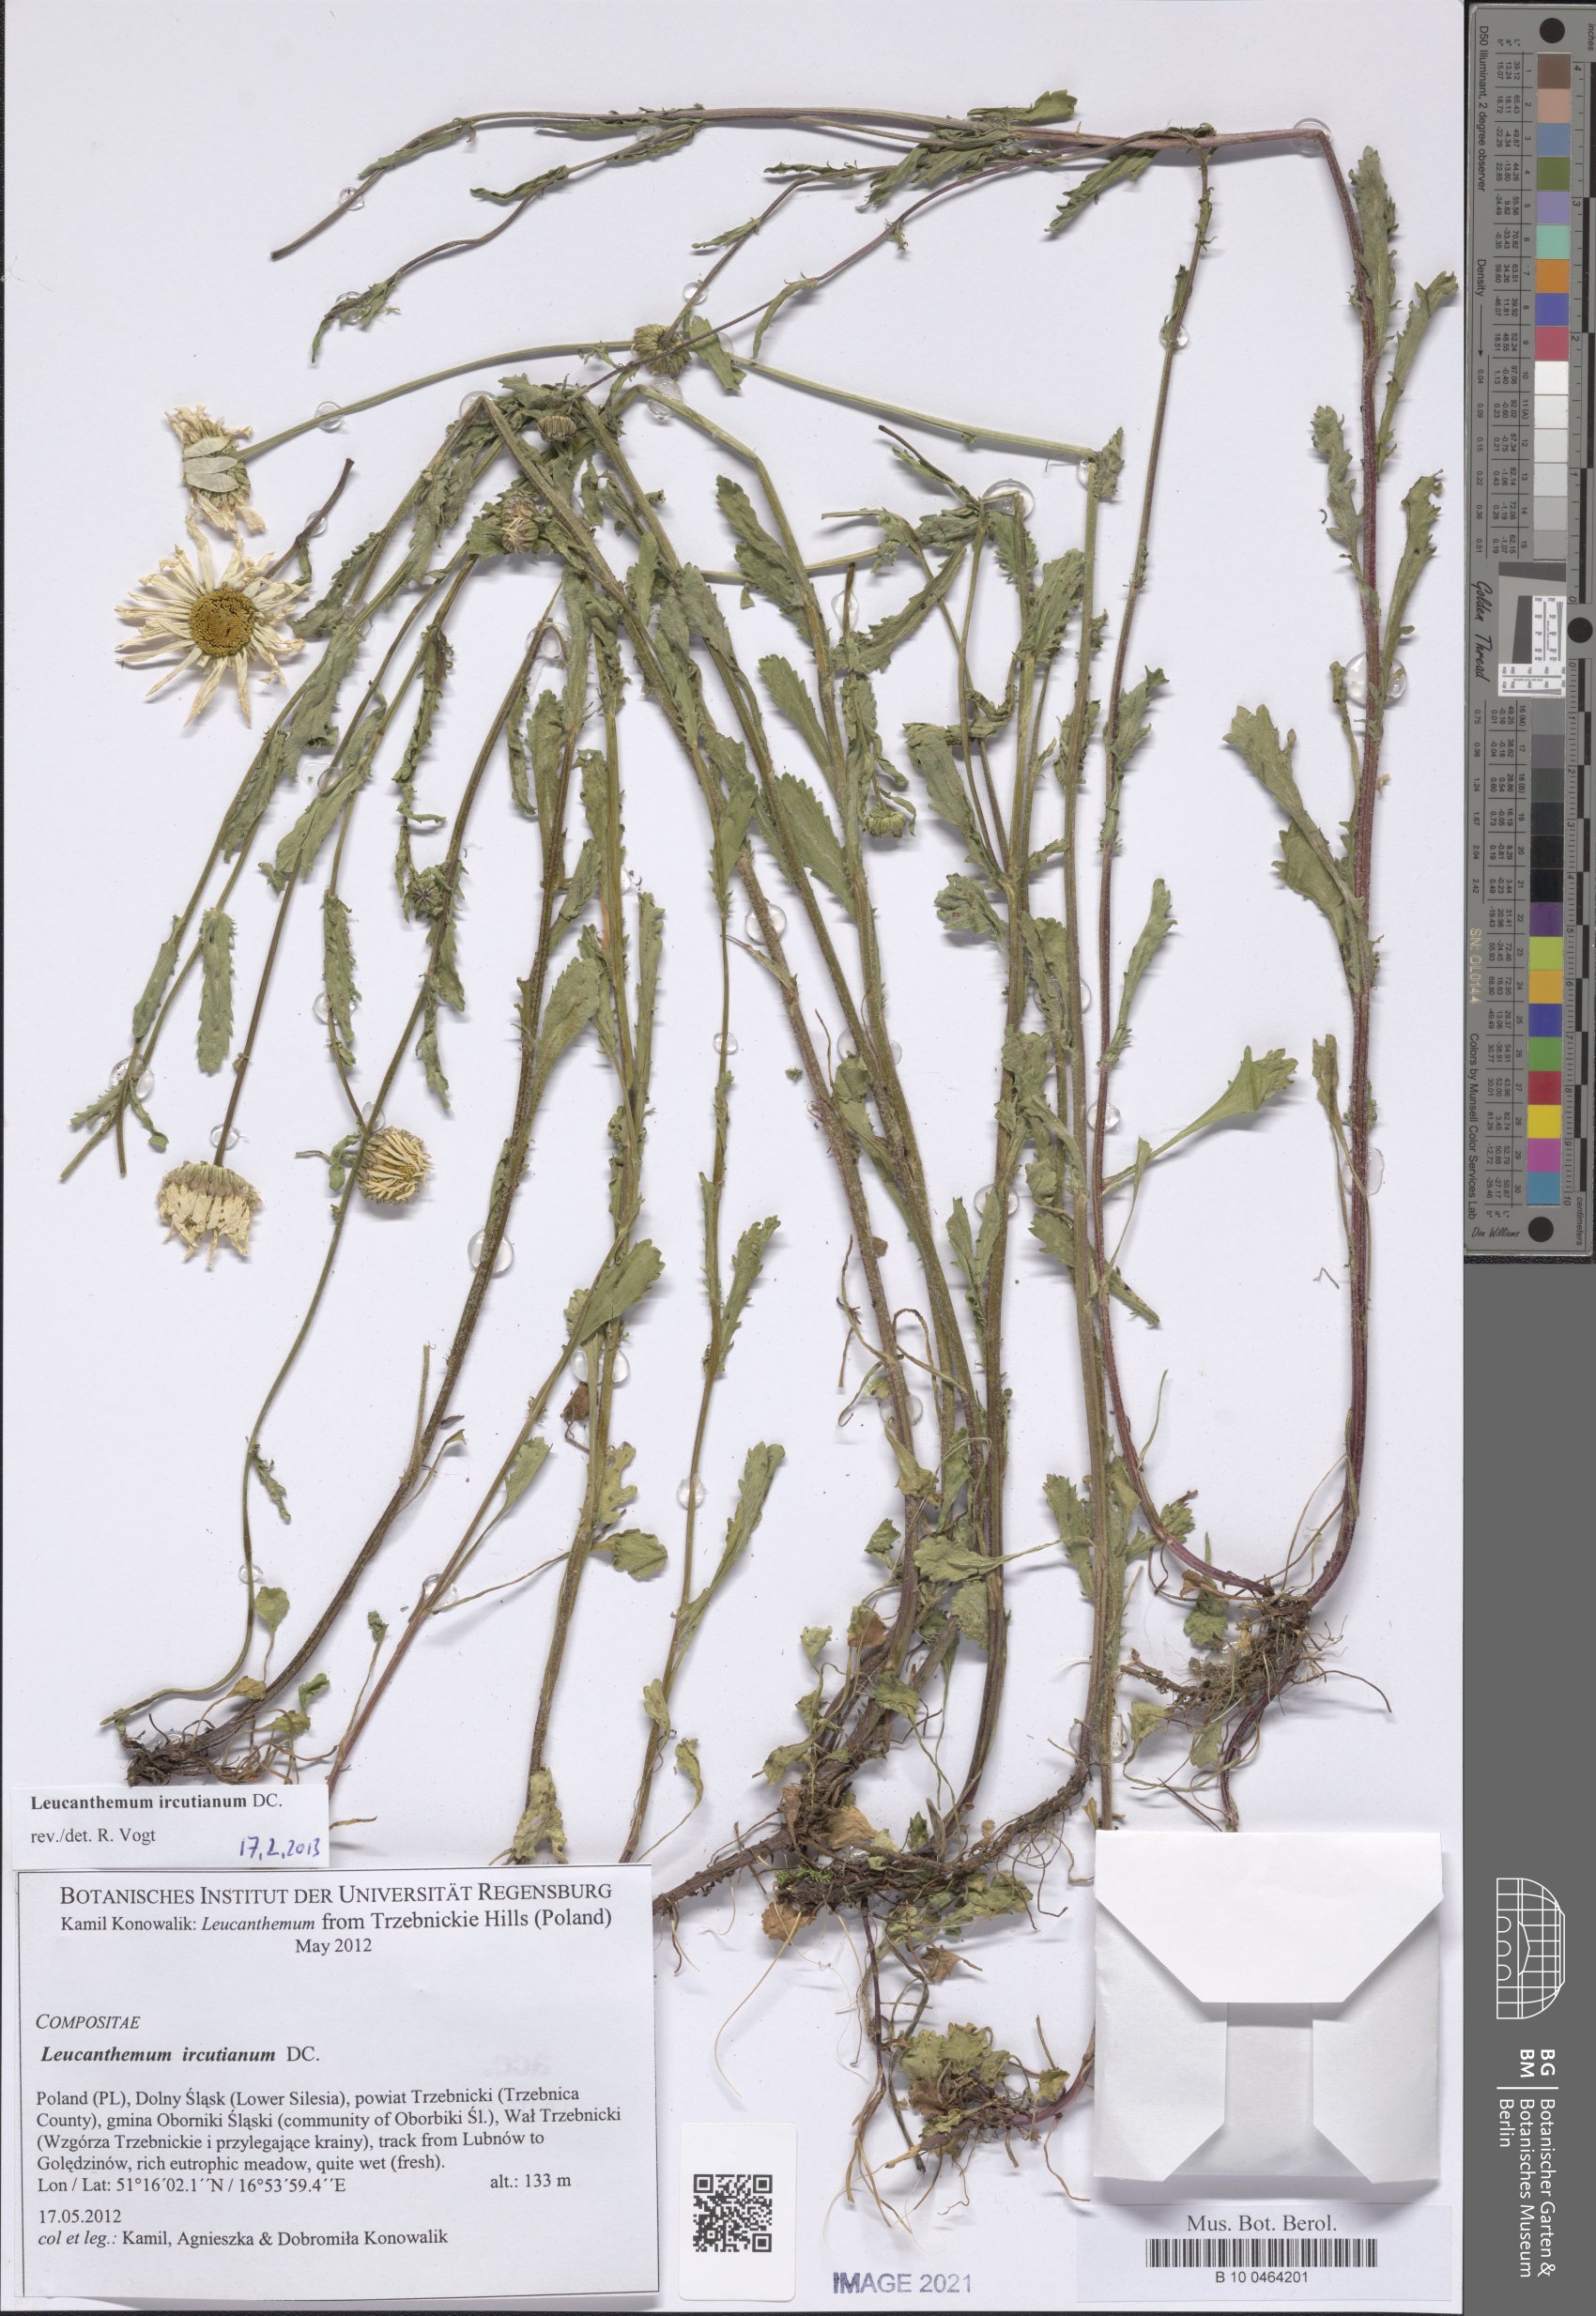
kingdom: Plantae
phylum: Tracheophyta
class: Magnoliopsida
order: Asterales
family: Asteraceae
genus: Leucanthemum
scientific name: Leucanthemum vulgare
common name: Oxeye daisy
